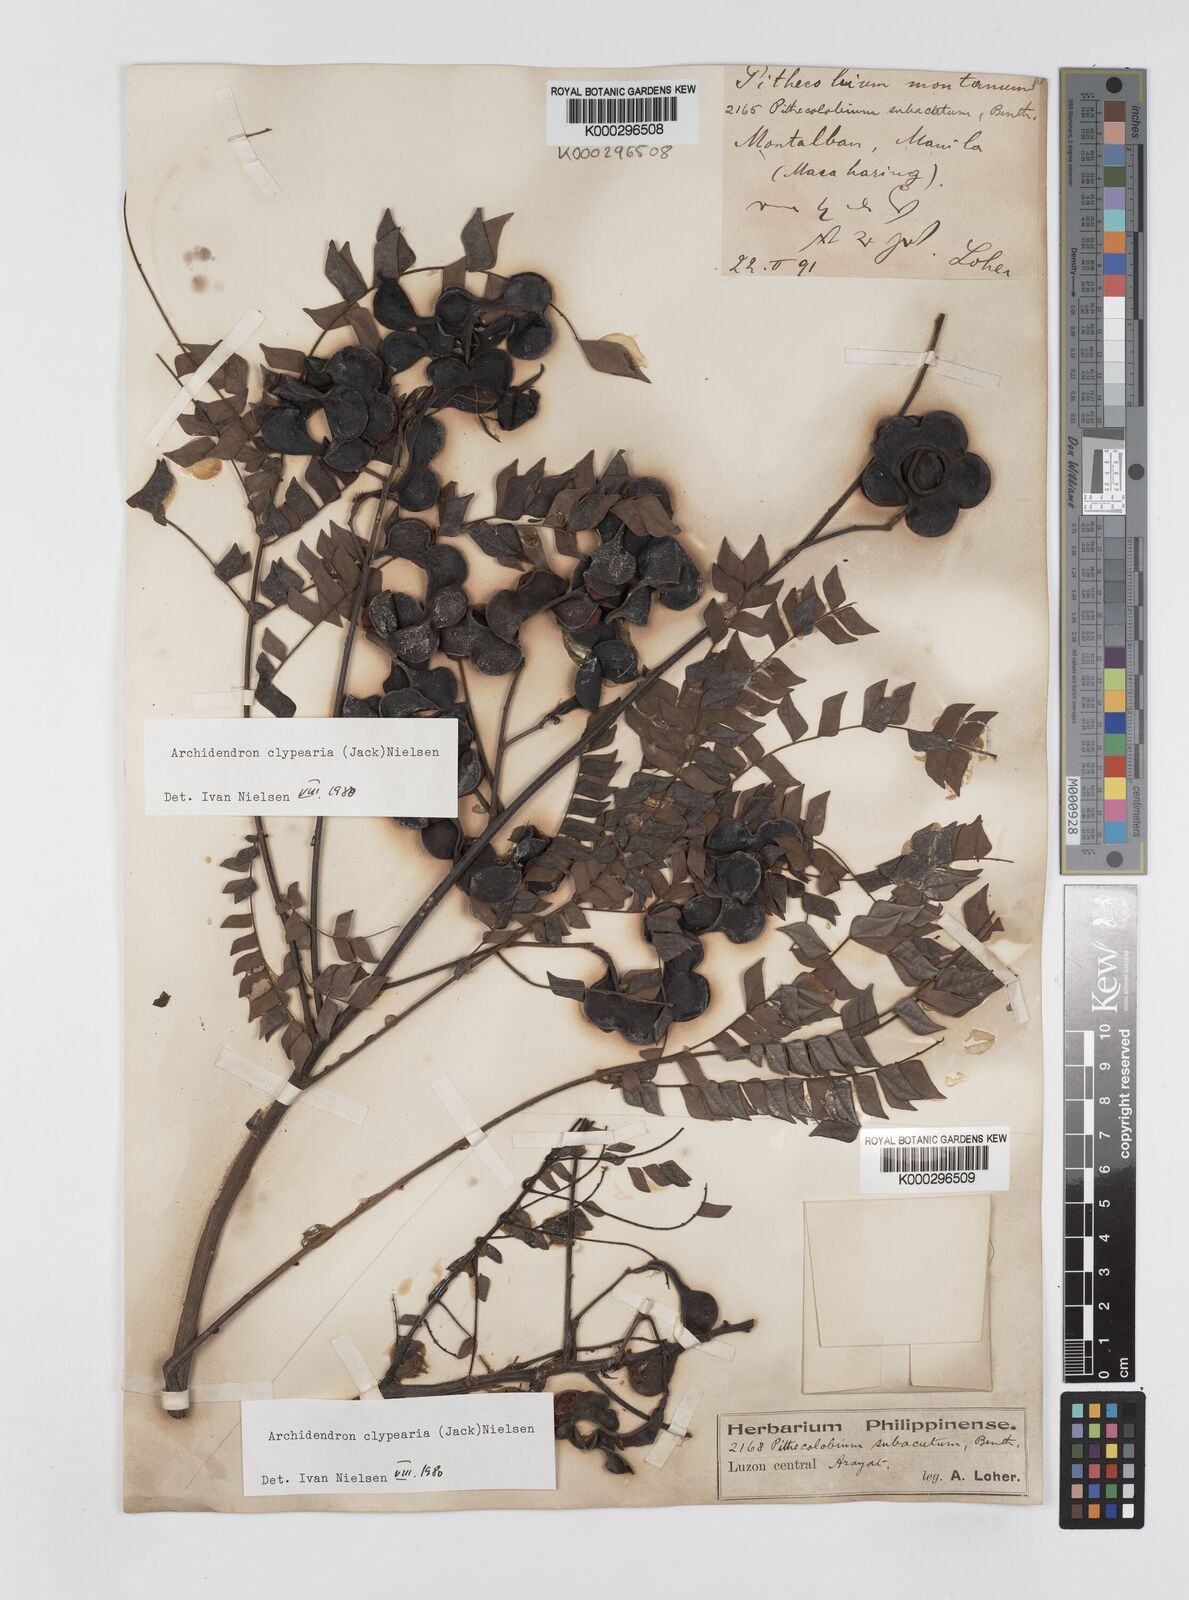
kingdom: Plantae
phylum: Tracheophyta
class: Magnoliopsida
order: Fabales
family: Fabaceae
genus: Archidendron
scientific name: Archidendron clypearia
